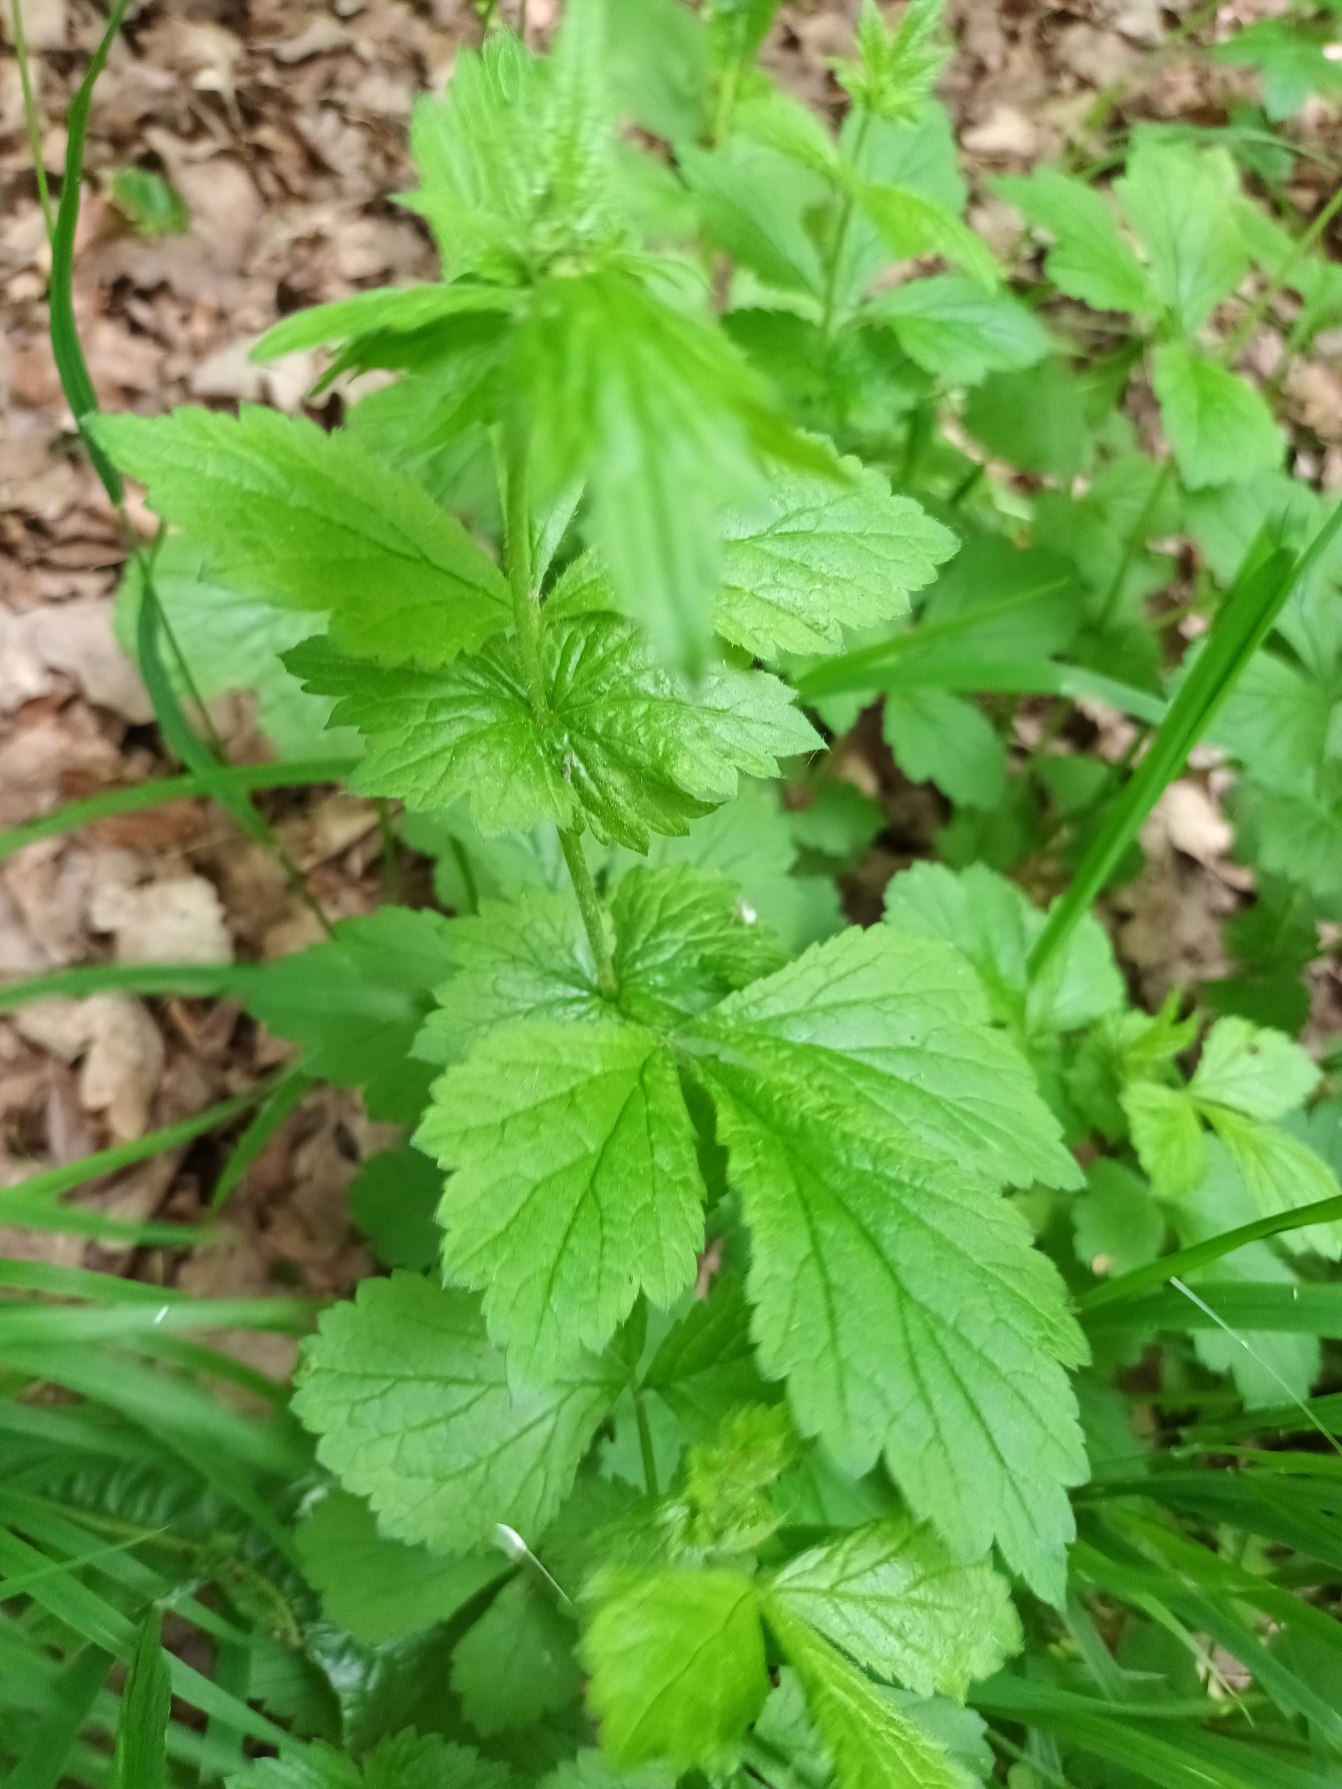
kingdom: Plantae
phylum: Tracheophyta
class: Magnoliopsida
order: Rosales
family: Rosaceae
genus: Geum
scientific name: Geum urbanum
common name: Feber-nellikerod
